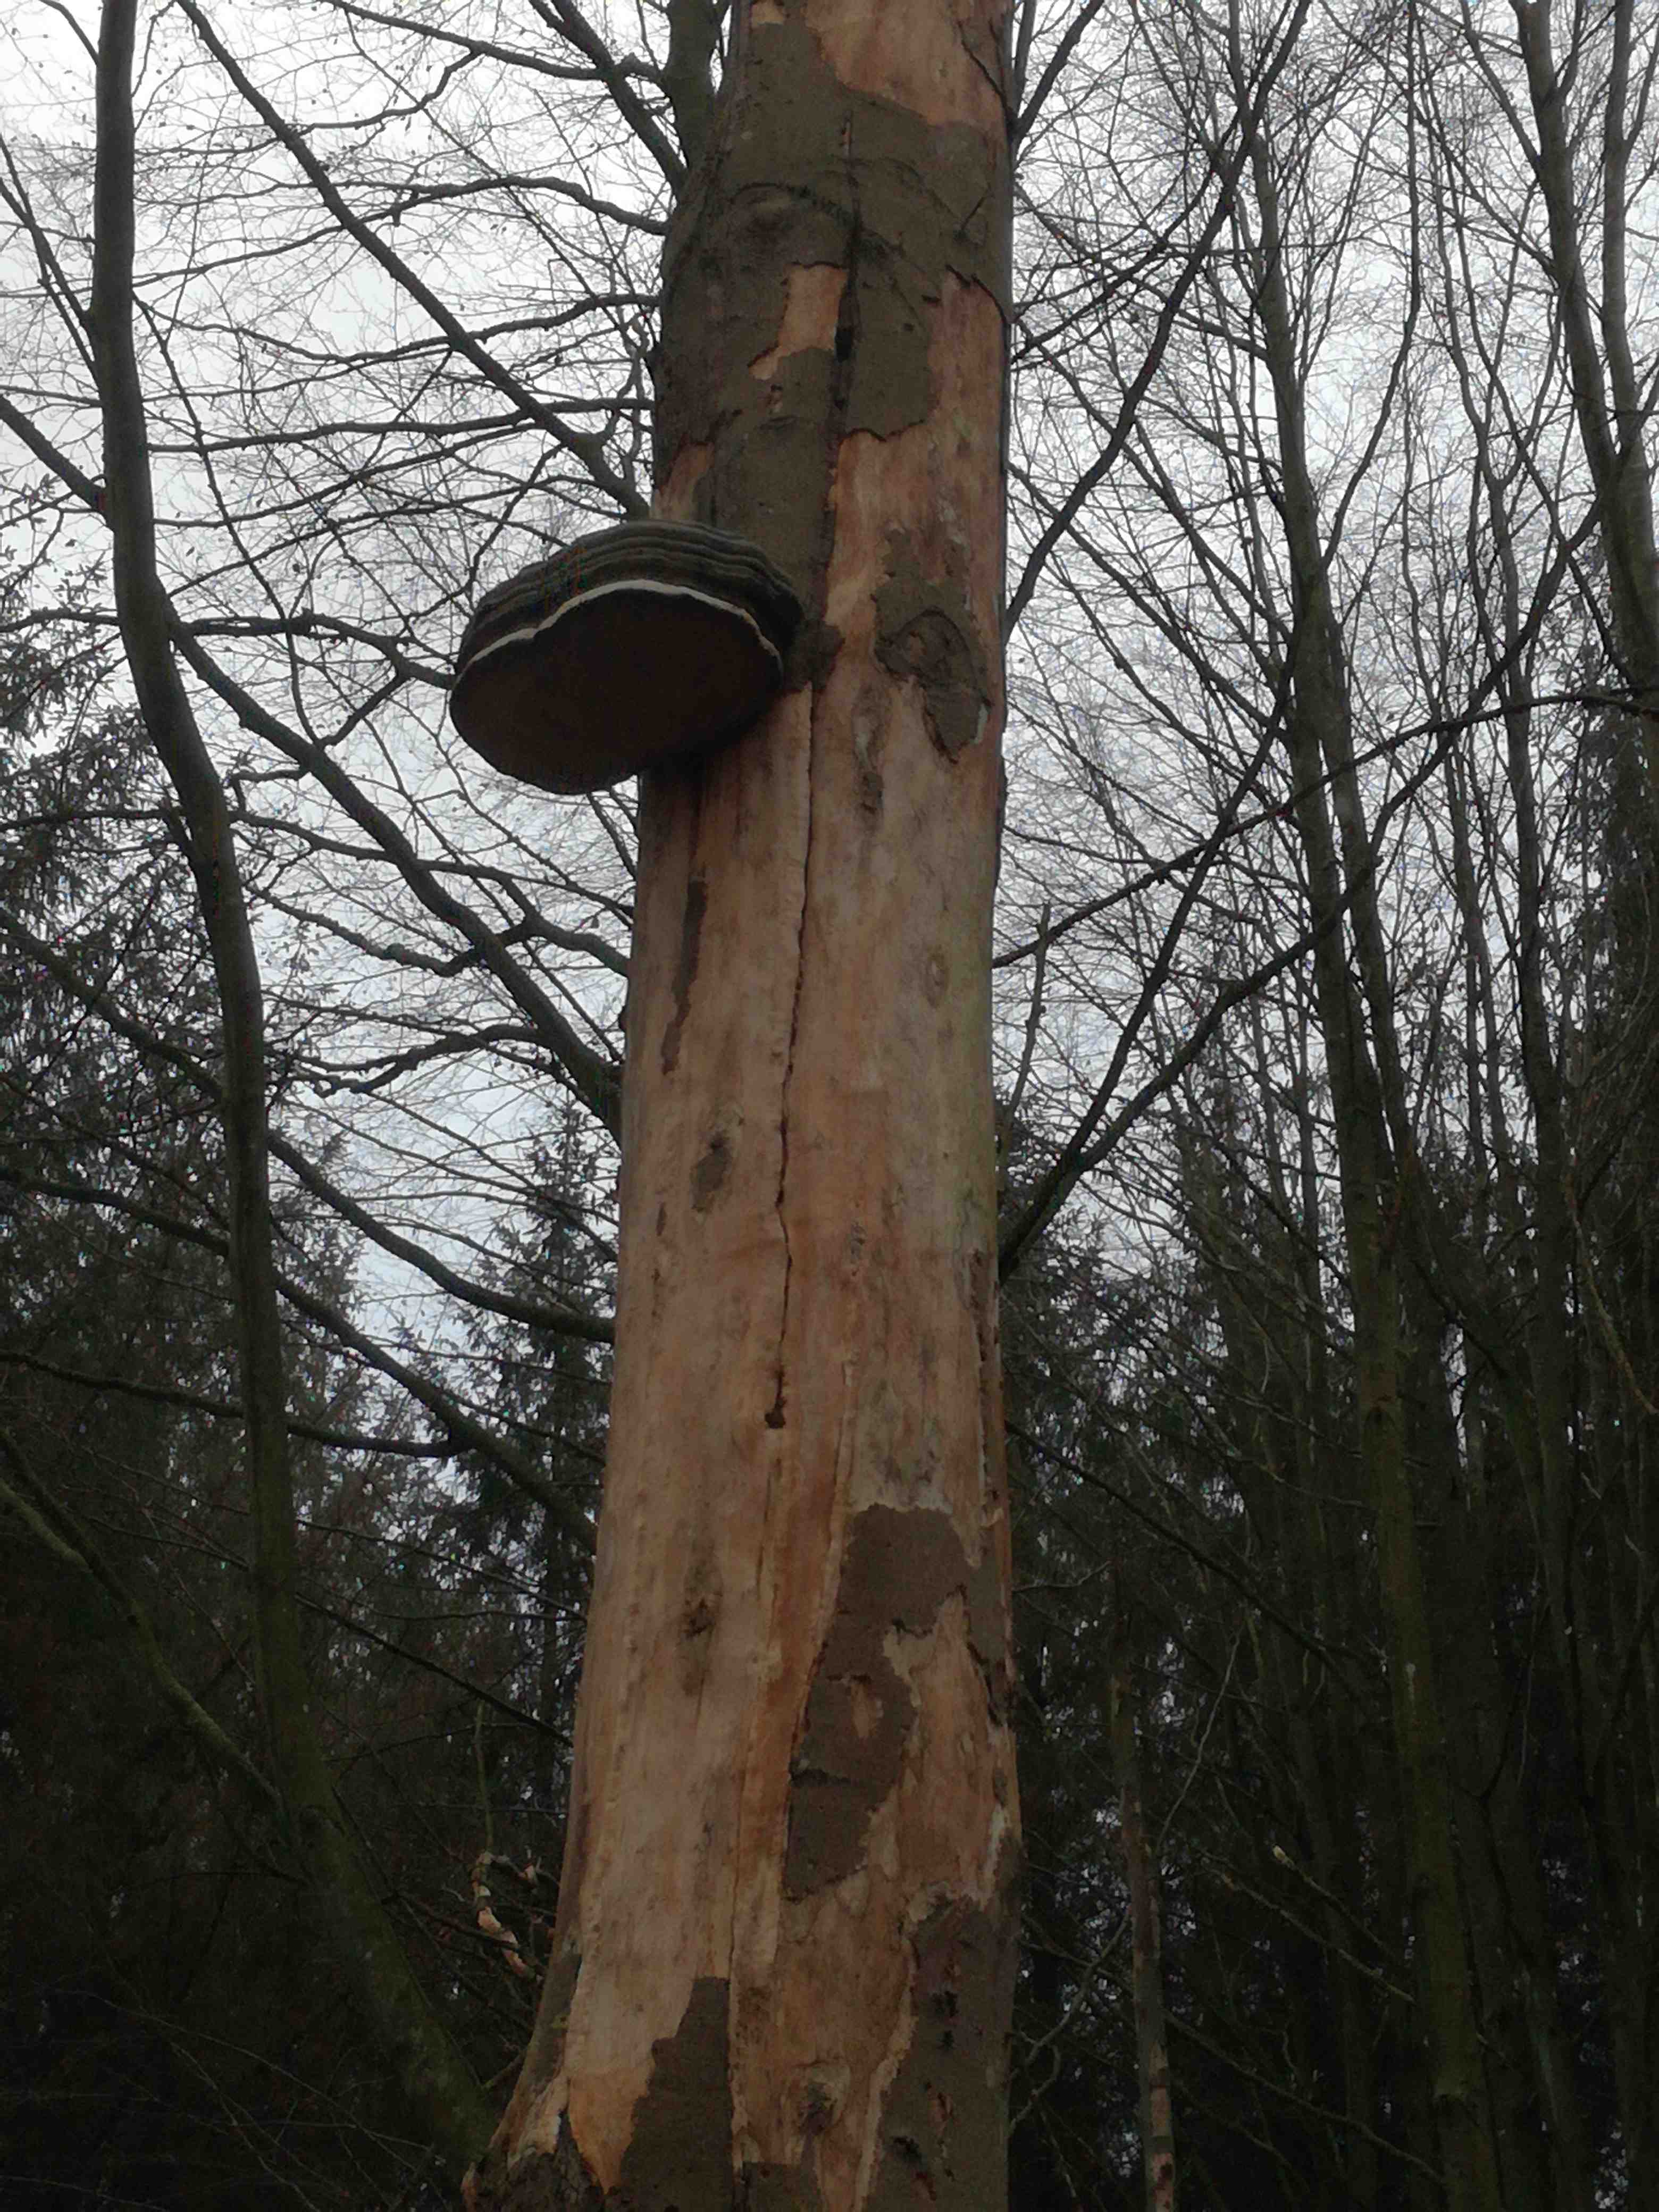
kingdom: Fungi
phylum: Basidiomycota
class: Agaricomycetes
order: Polyporales
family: Polyporaceae
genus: Fomes
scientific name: Fomes fomentarius
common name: tøndersvamp
